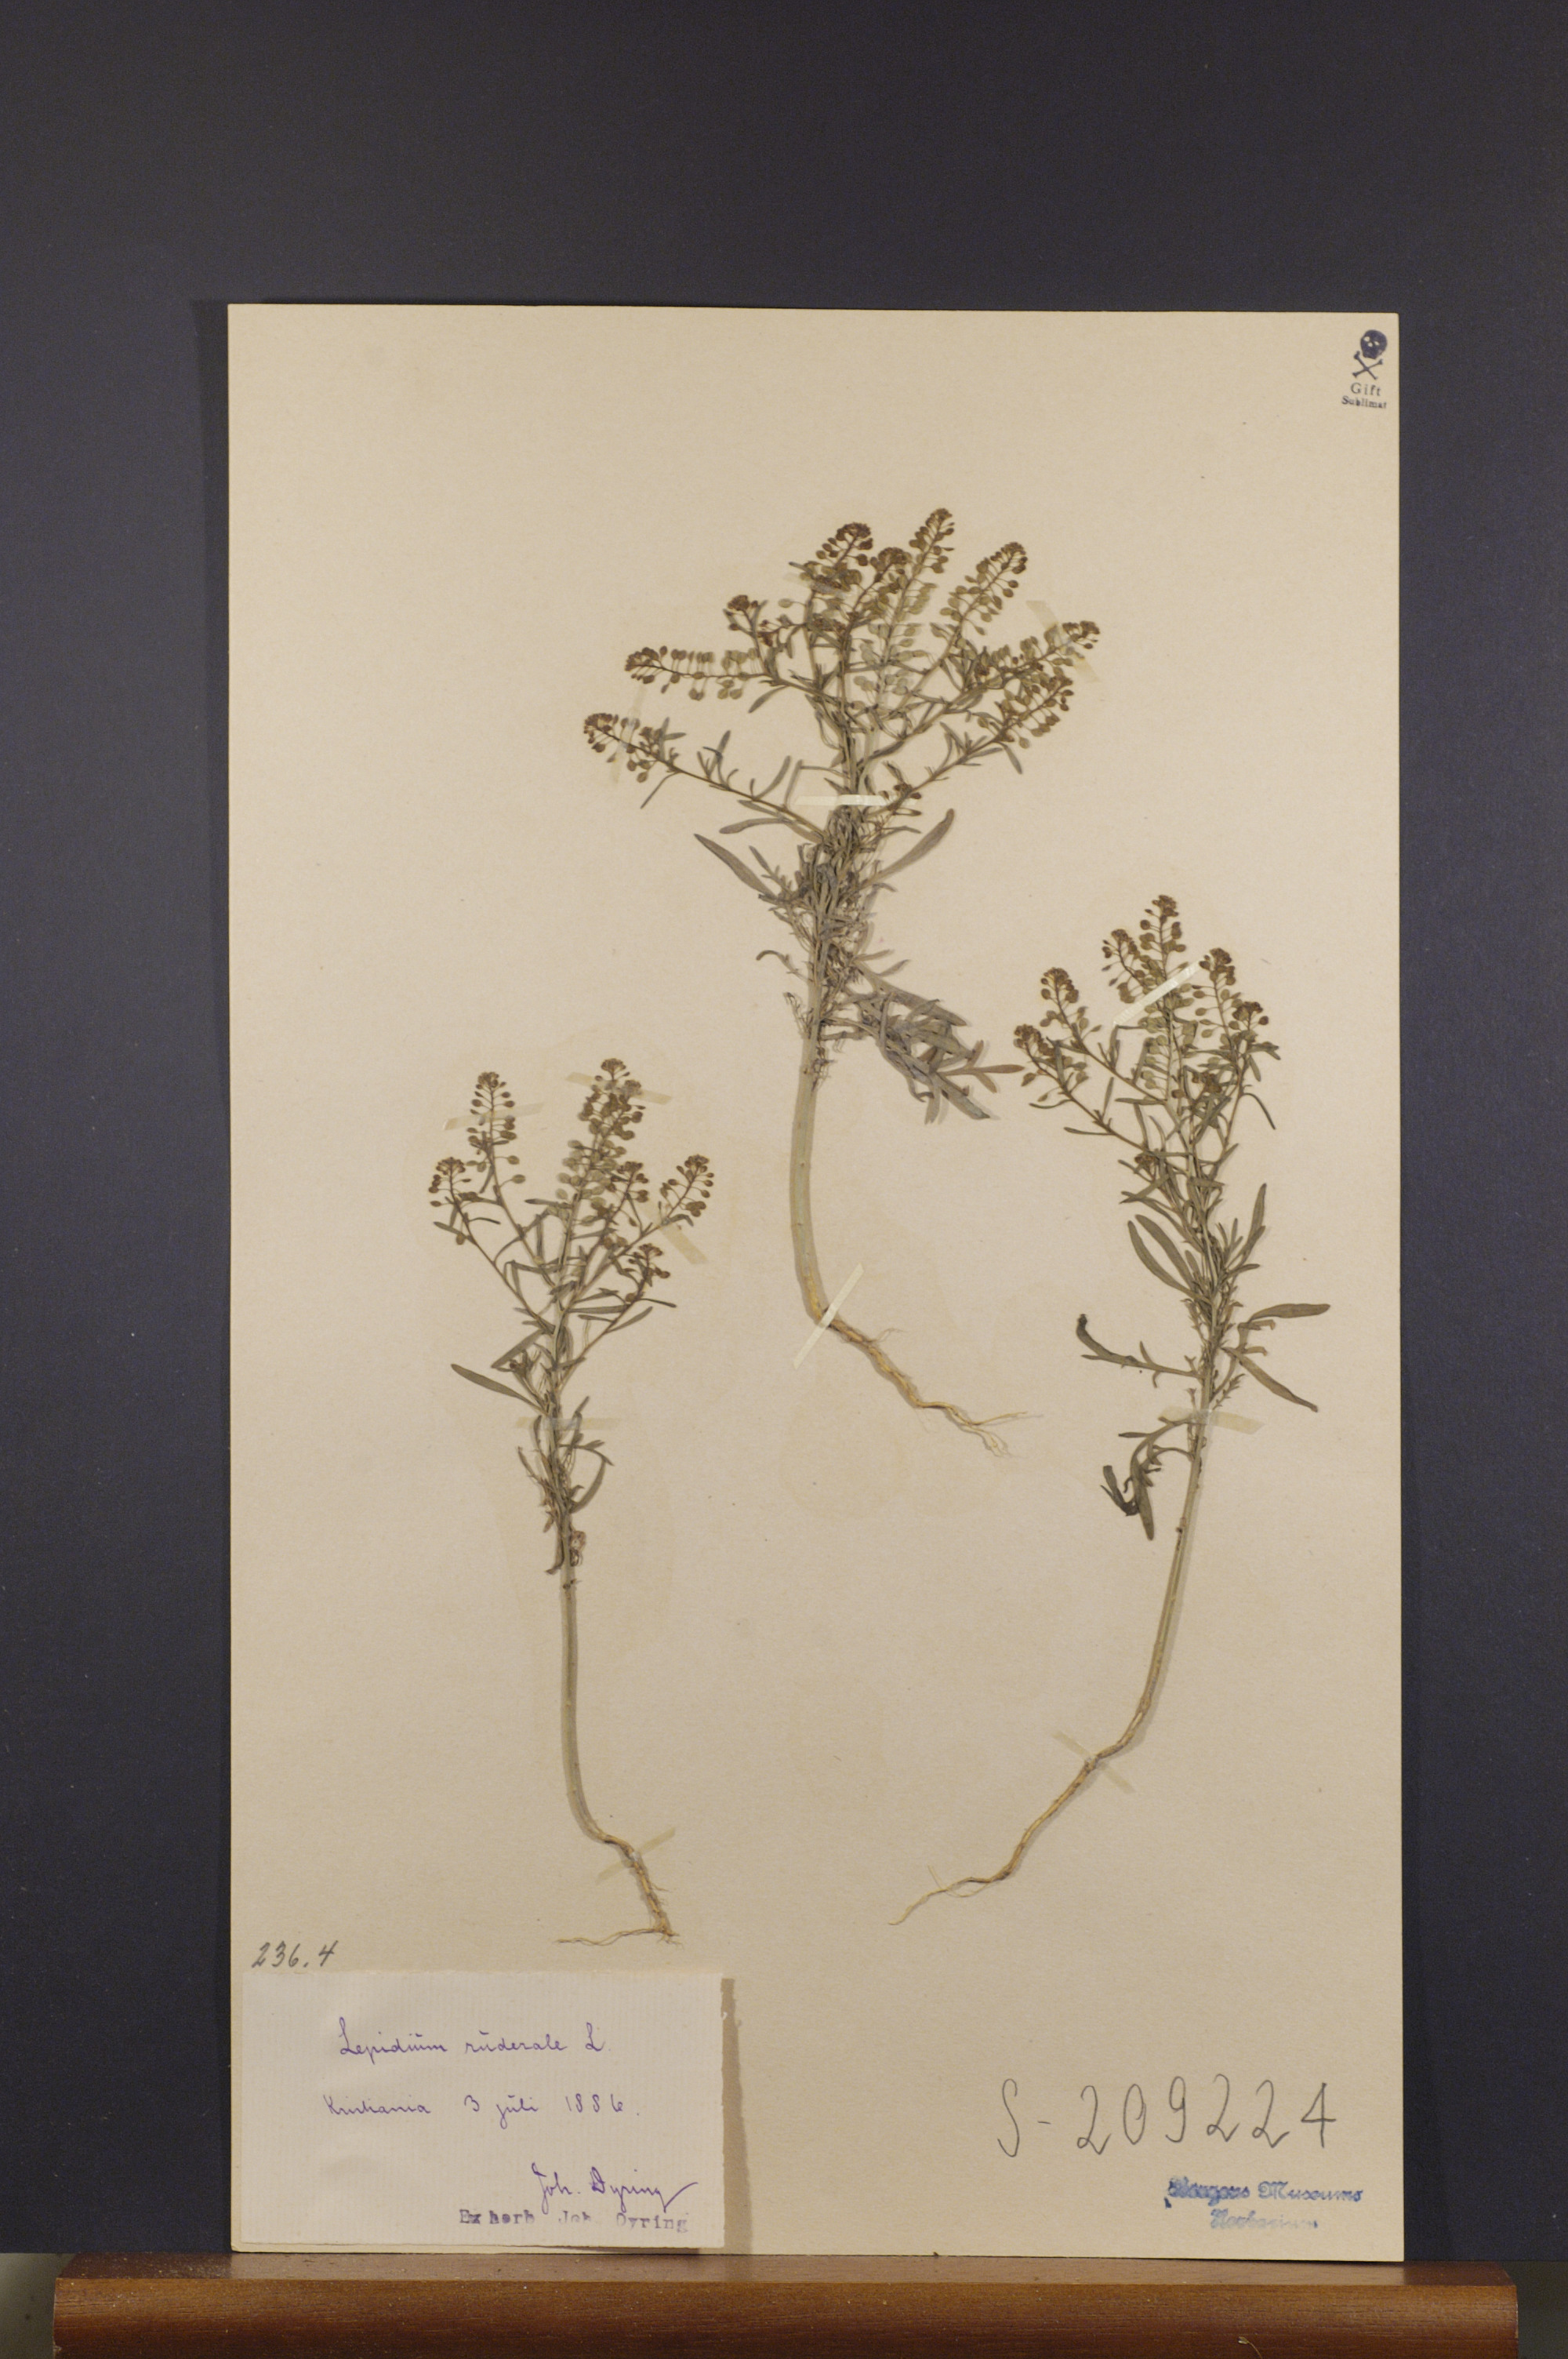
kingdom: Plantae
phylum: Tracheophyta
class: Magnoliopsida
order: Brassicales
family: Brassicaceae
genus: Lepidium
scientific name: Lepidium ruderale
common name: Narrow-leaved pepperwort
